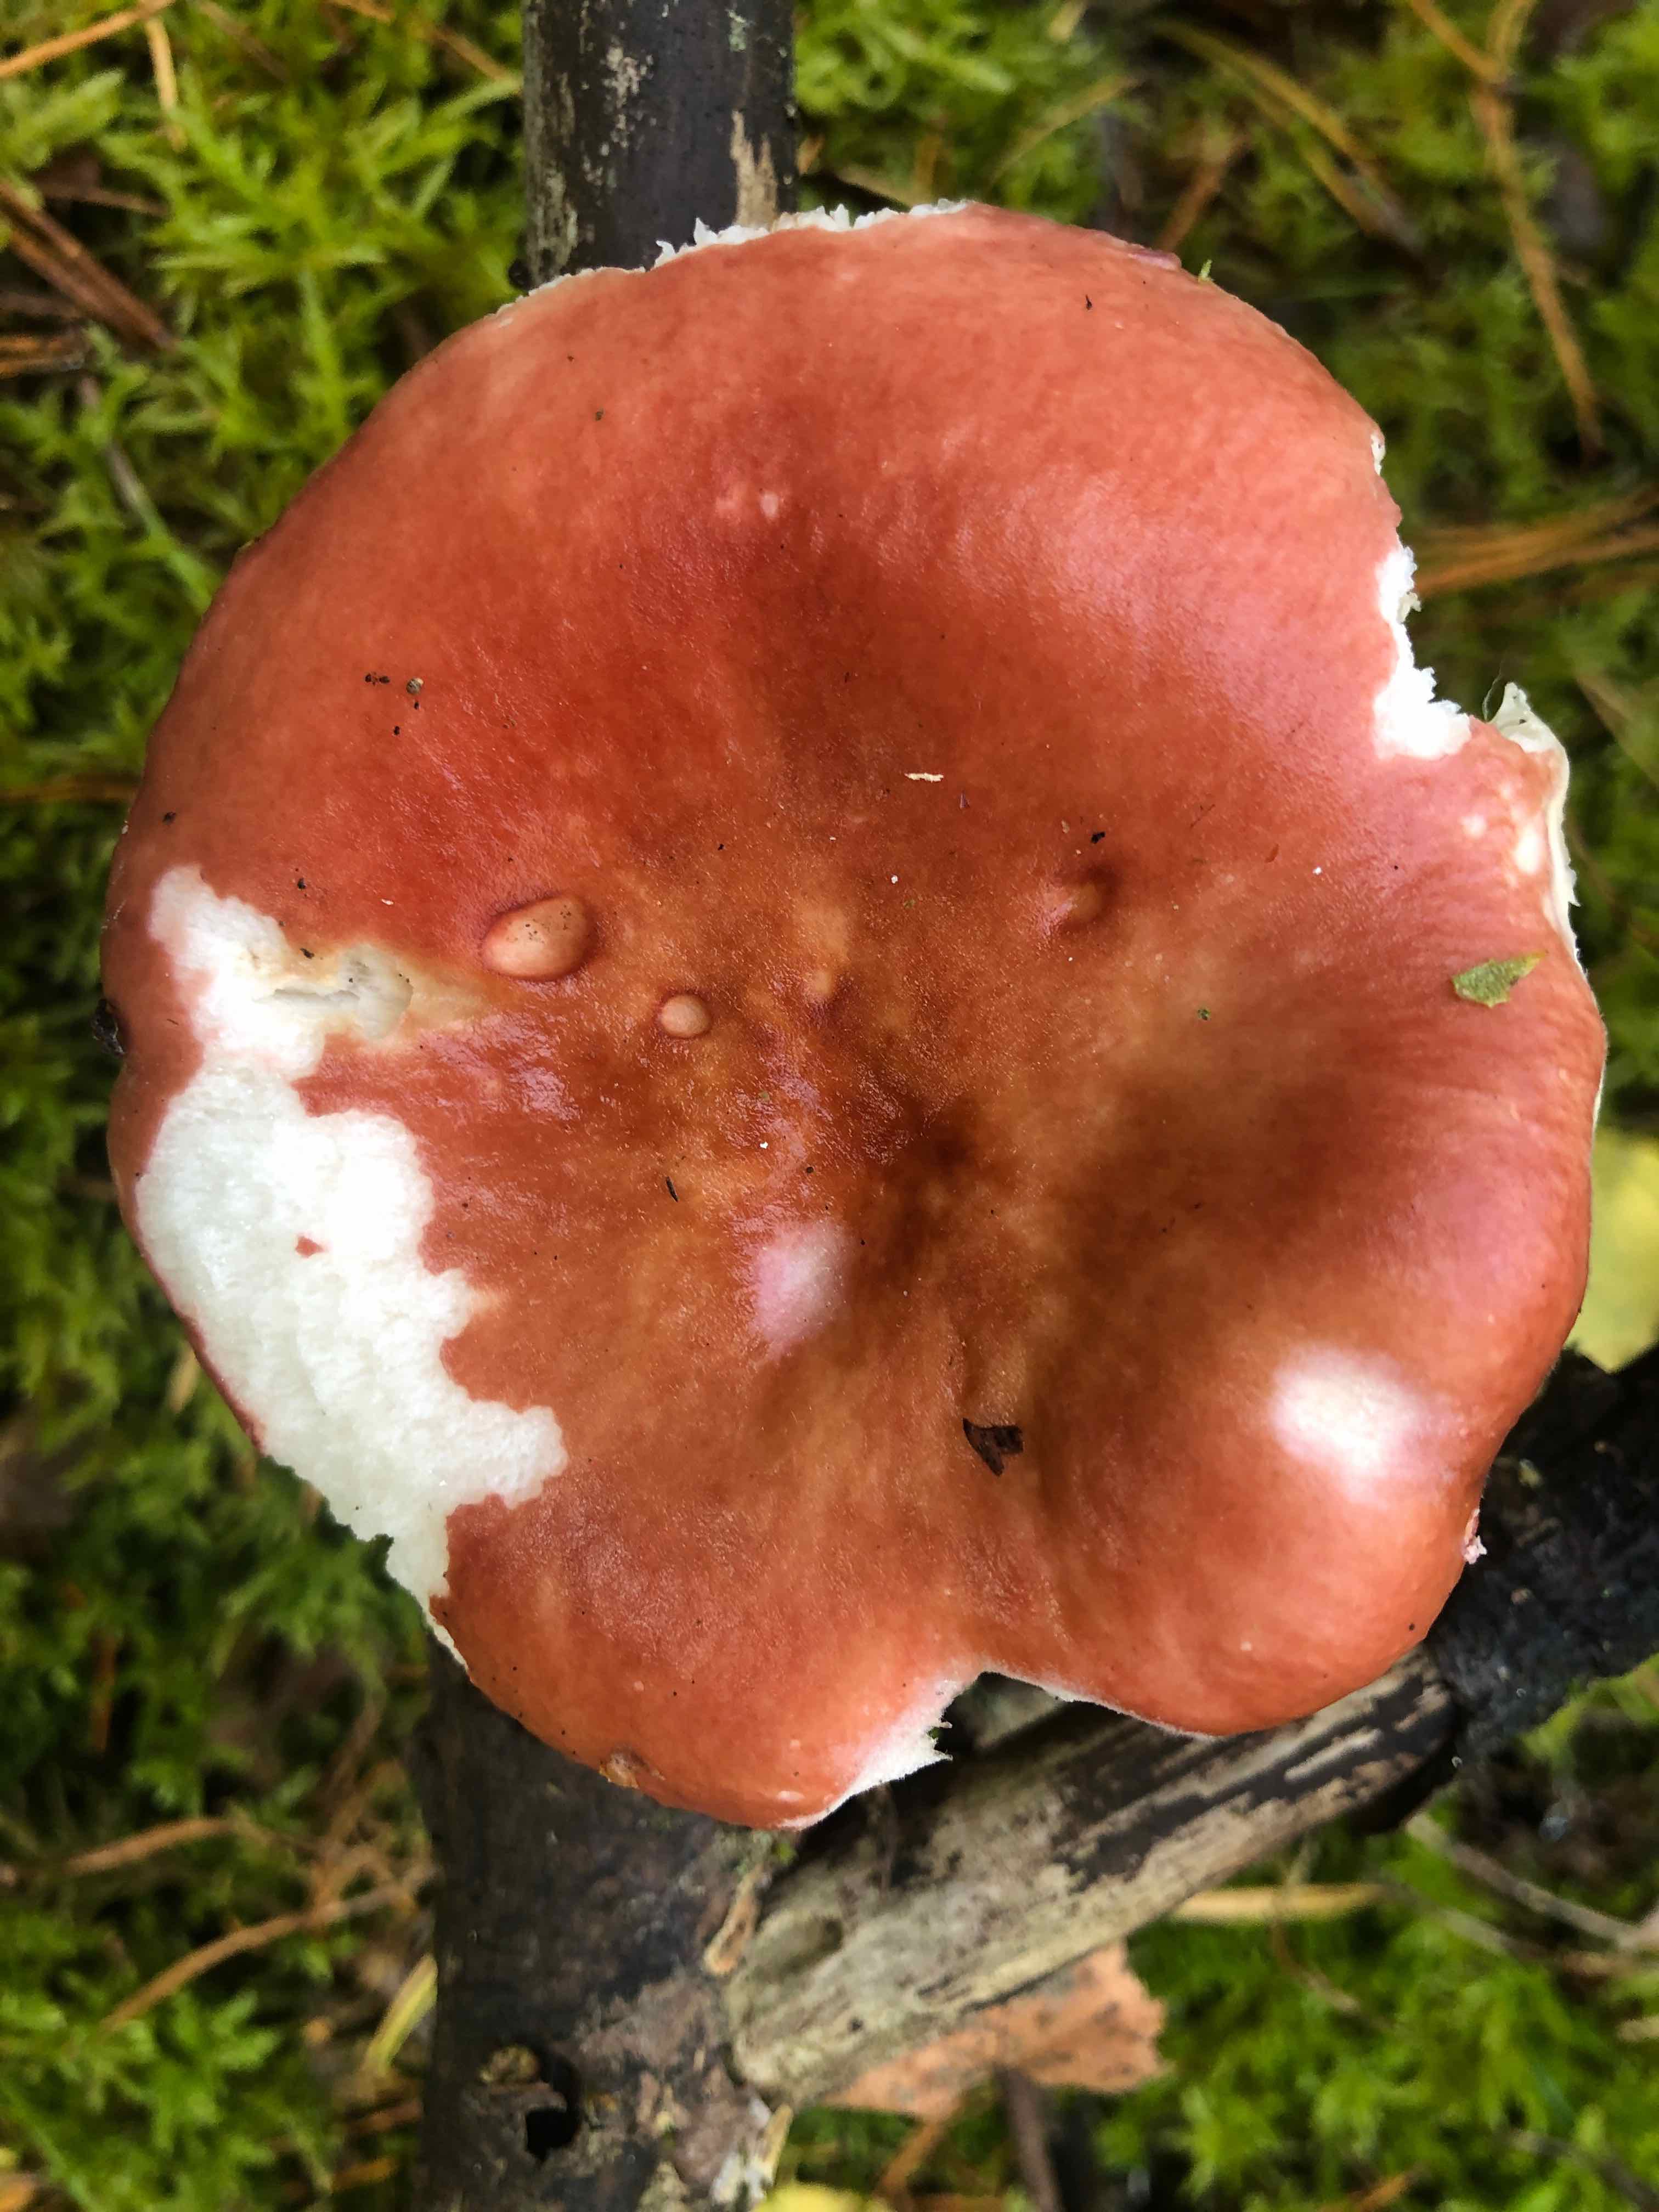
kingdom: Fungi
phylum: Basidiomycota
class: Agaricomycetes
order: Russulales
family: Russulaceae
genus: Russula
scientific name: Russula paludosa
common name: prægtig skørhat
